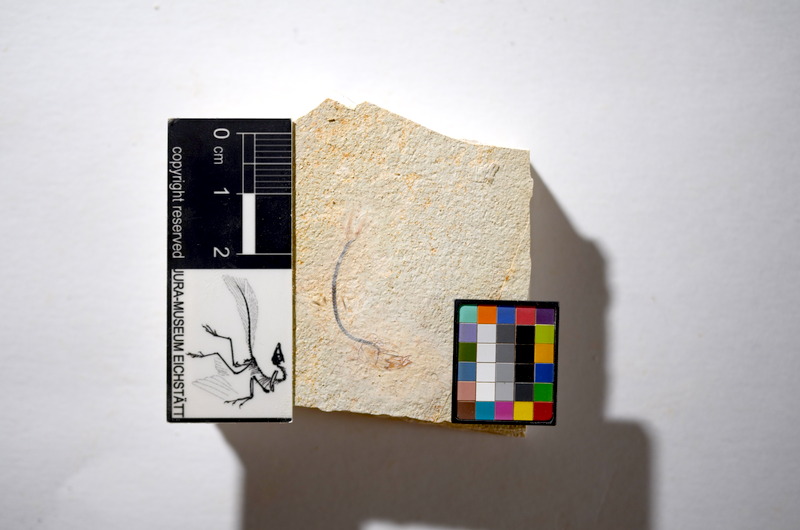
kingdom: Animalia
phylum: Chordata
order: Salmoniformes
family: Orthogonikleithridae
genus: Orthogonikleithrus
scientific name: Orthogonikleithrus hoelli
